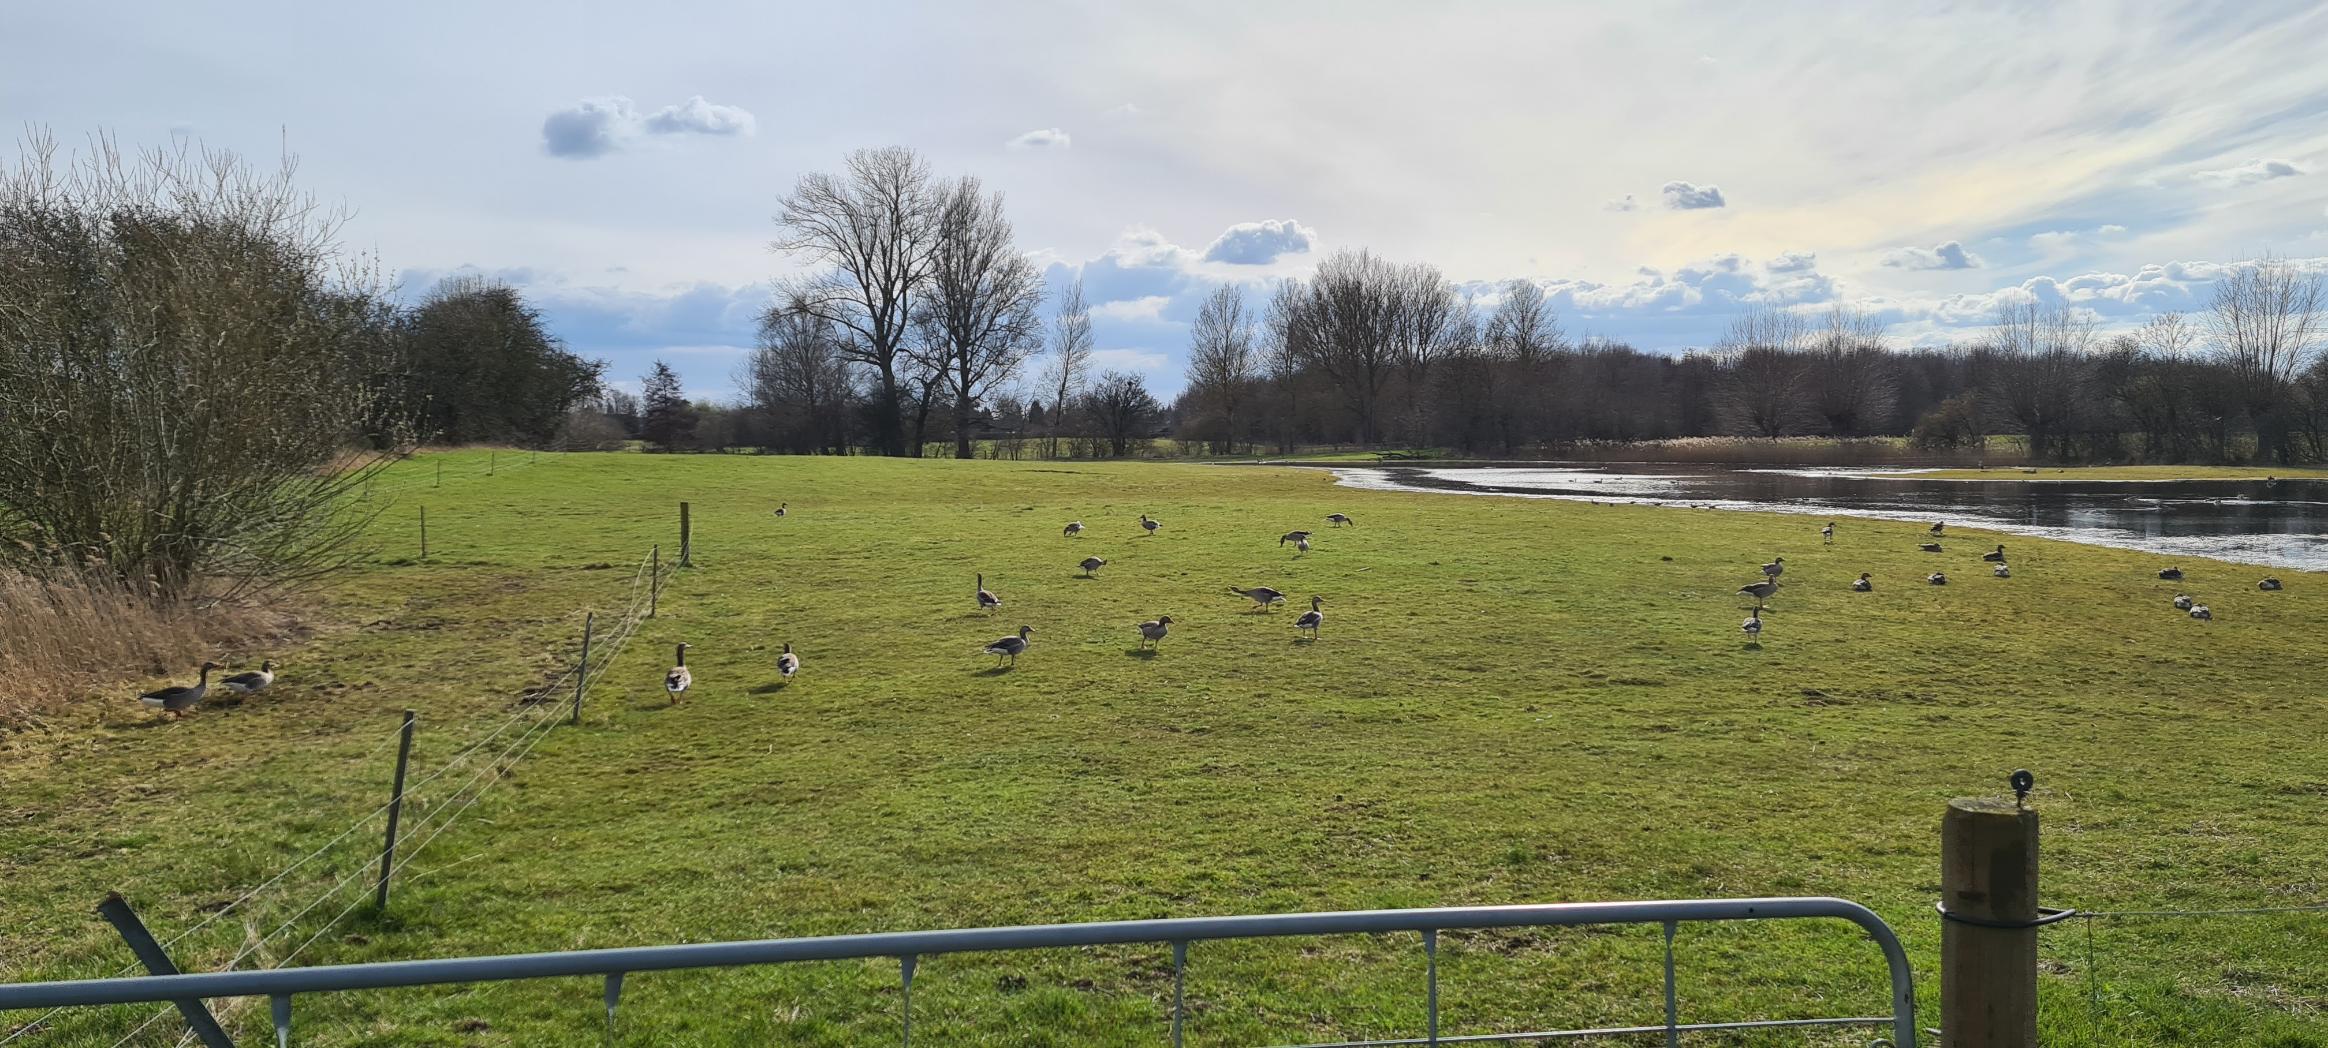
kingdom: Animalia
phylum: Chordata
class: Aves
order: Anseriformes
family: Anatidae
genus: Anser
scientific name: Anser anser
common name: Grågås
